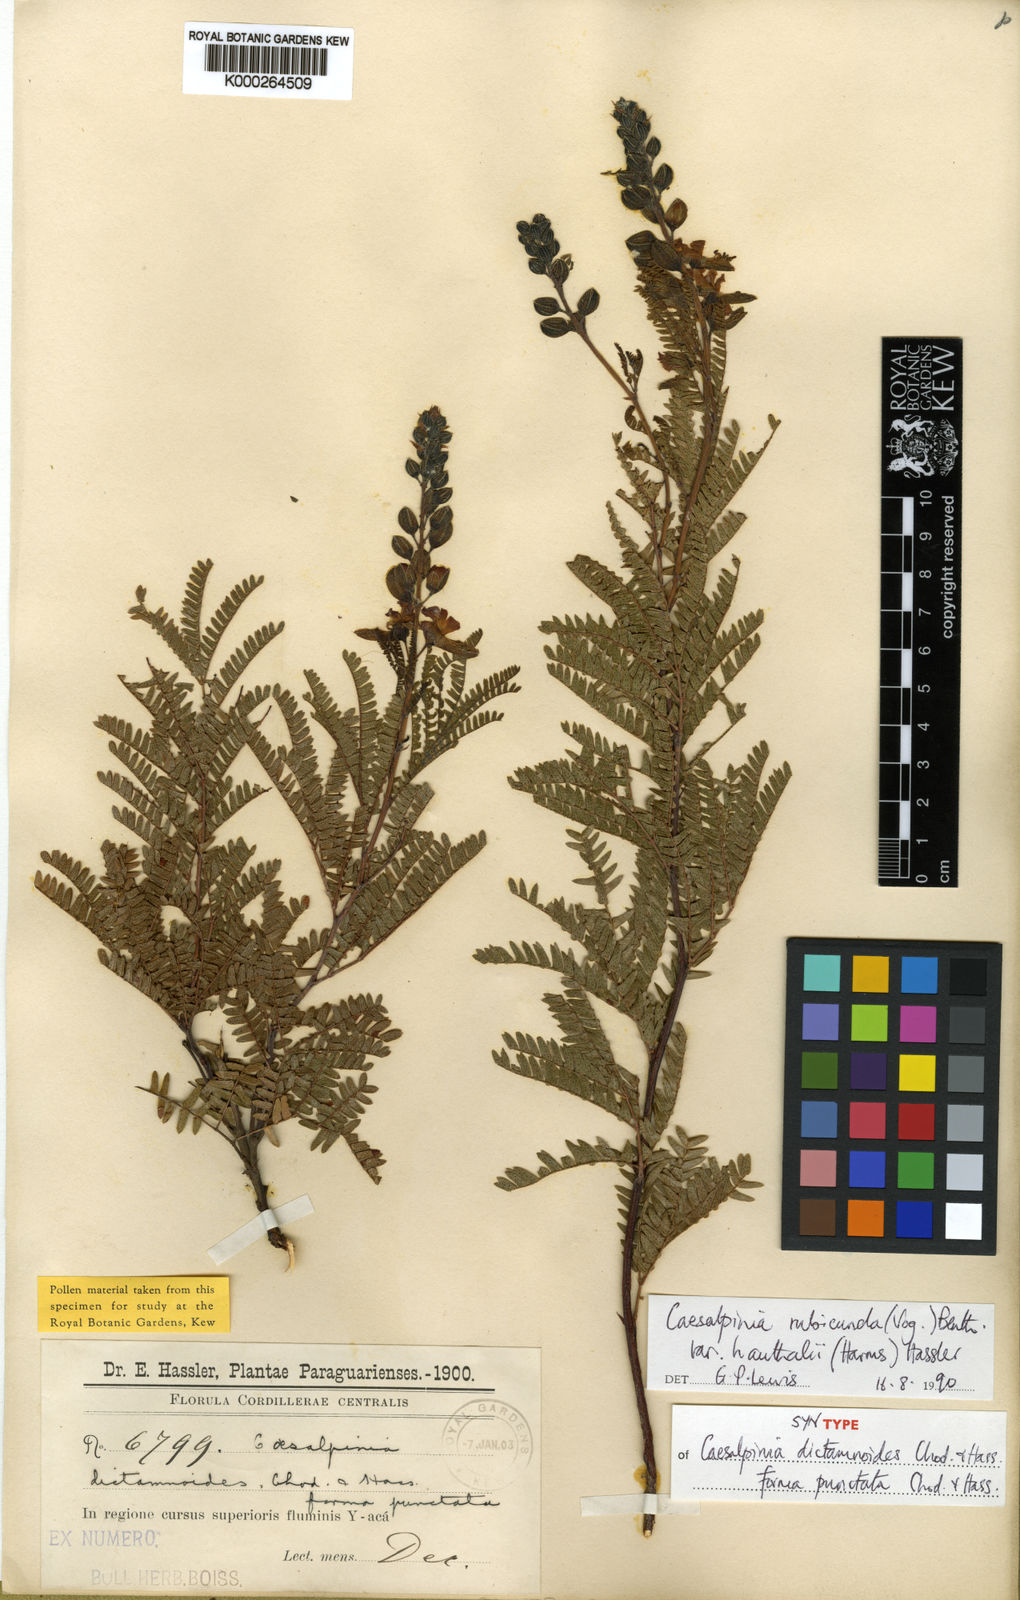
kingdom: Plantae
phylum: Tracheophyta
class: Magnoliopsida
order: Fabales
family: Fabaceae
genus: Pomaria
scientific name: Pomaria rubicunda
